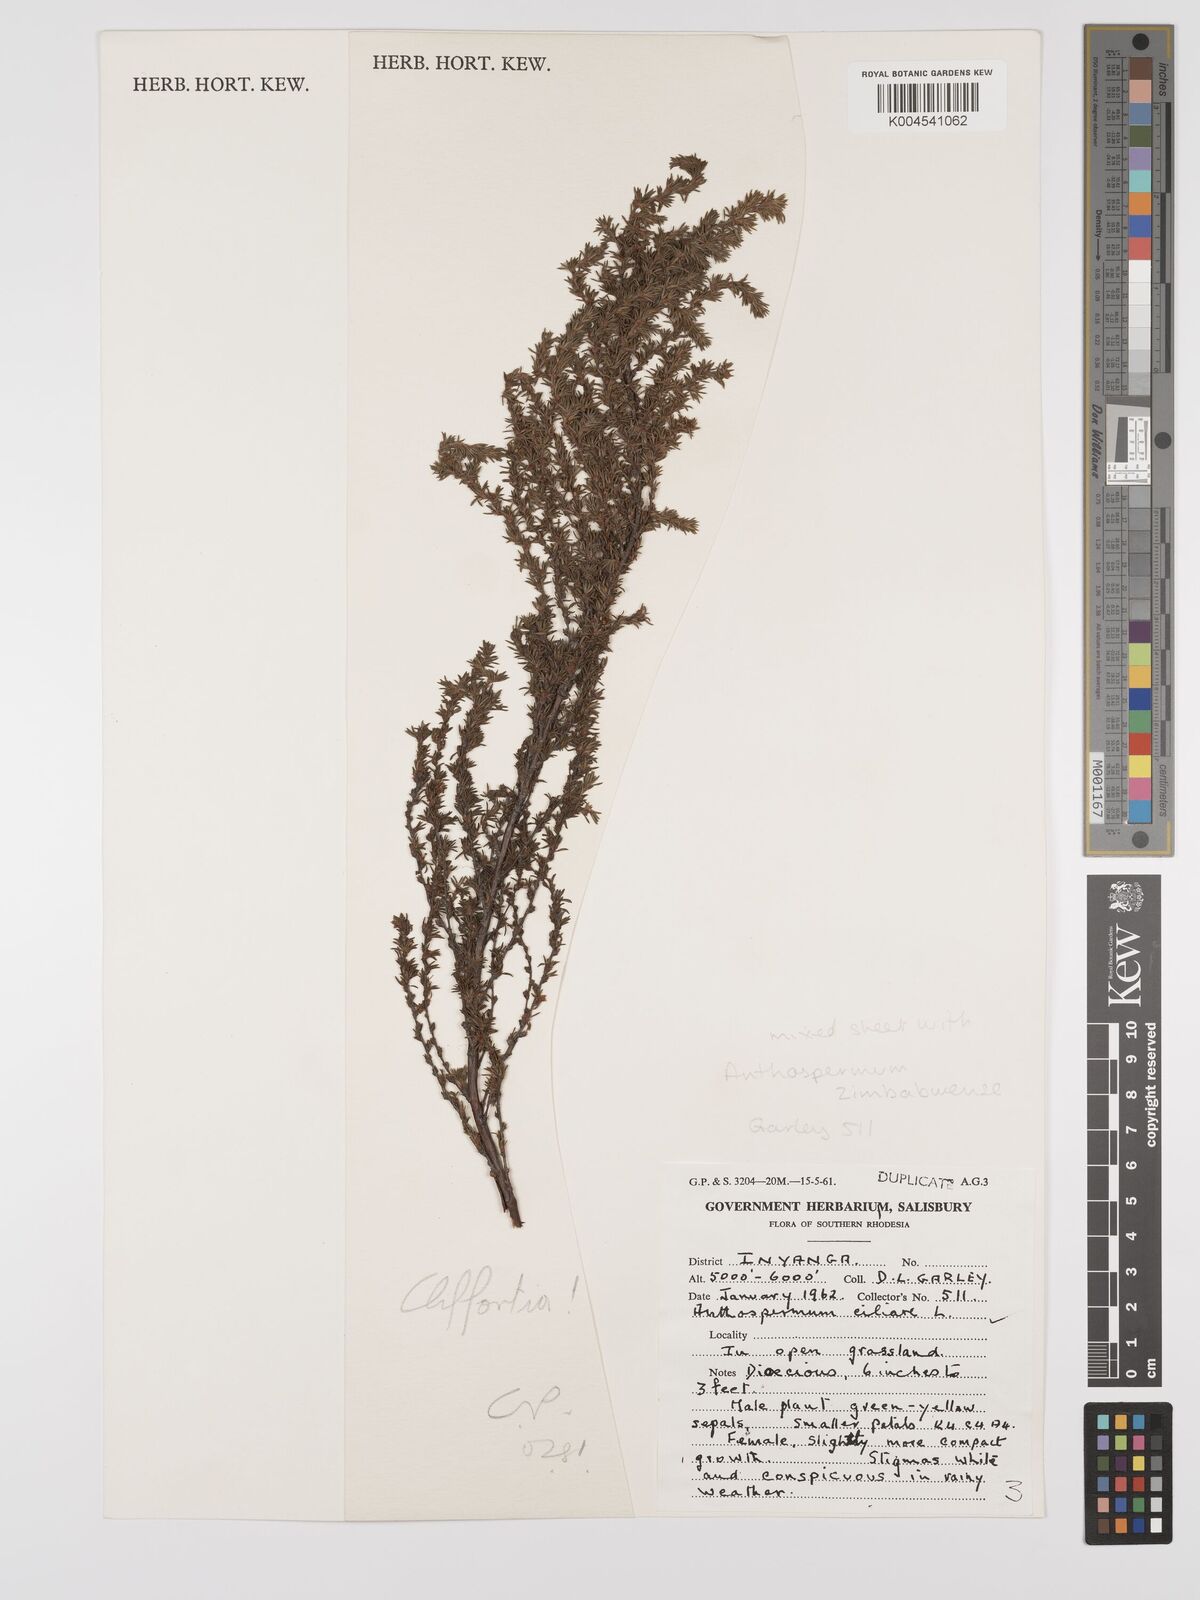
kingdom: Plantae
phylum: Tracheophyta
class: Magnoliopsida
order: Rosales
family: Rosaceae
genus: Cliffortia
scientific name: Cliffortia linearifolia
